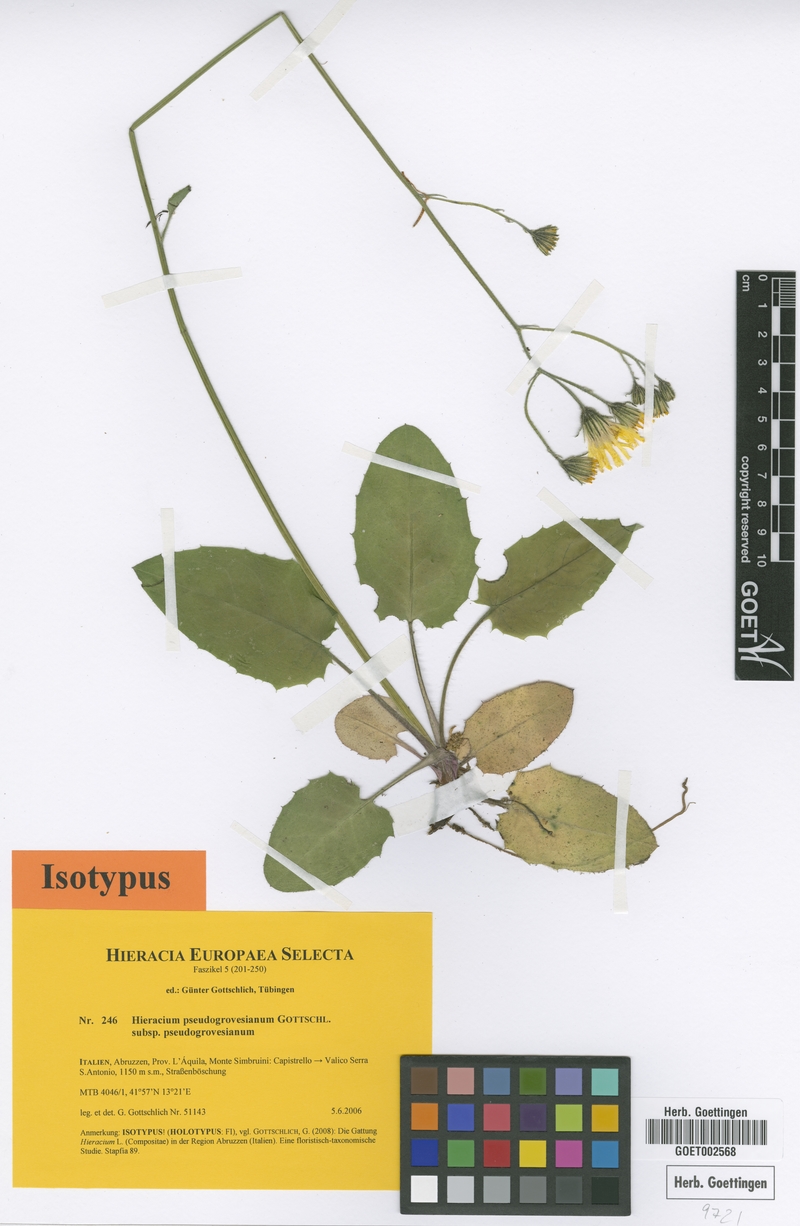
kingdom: Plantae
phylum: Tracheophyta
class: Magnoliopsida
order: Asterales
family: Asteraceae
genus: Hieracium
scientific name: Hieracium pseudogrovesianum
